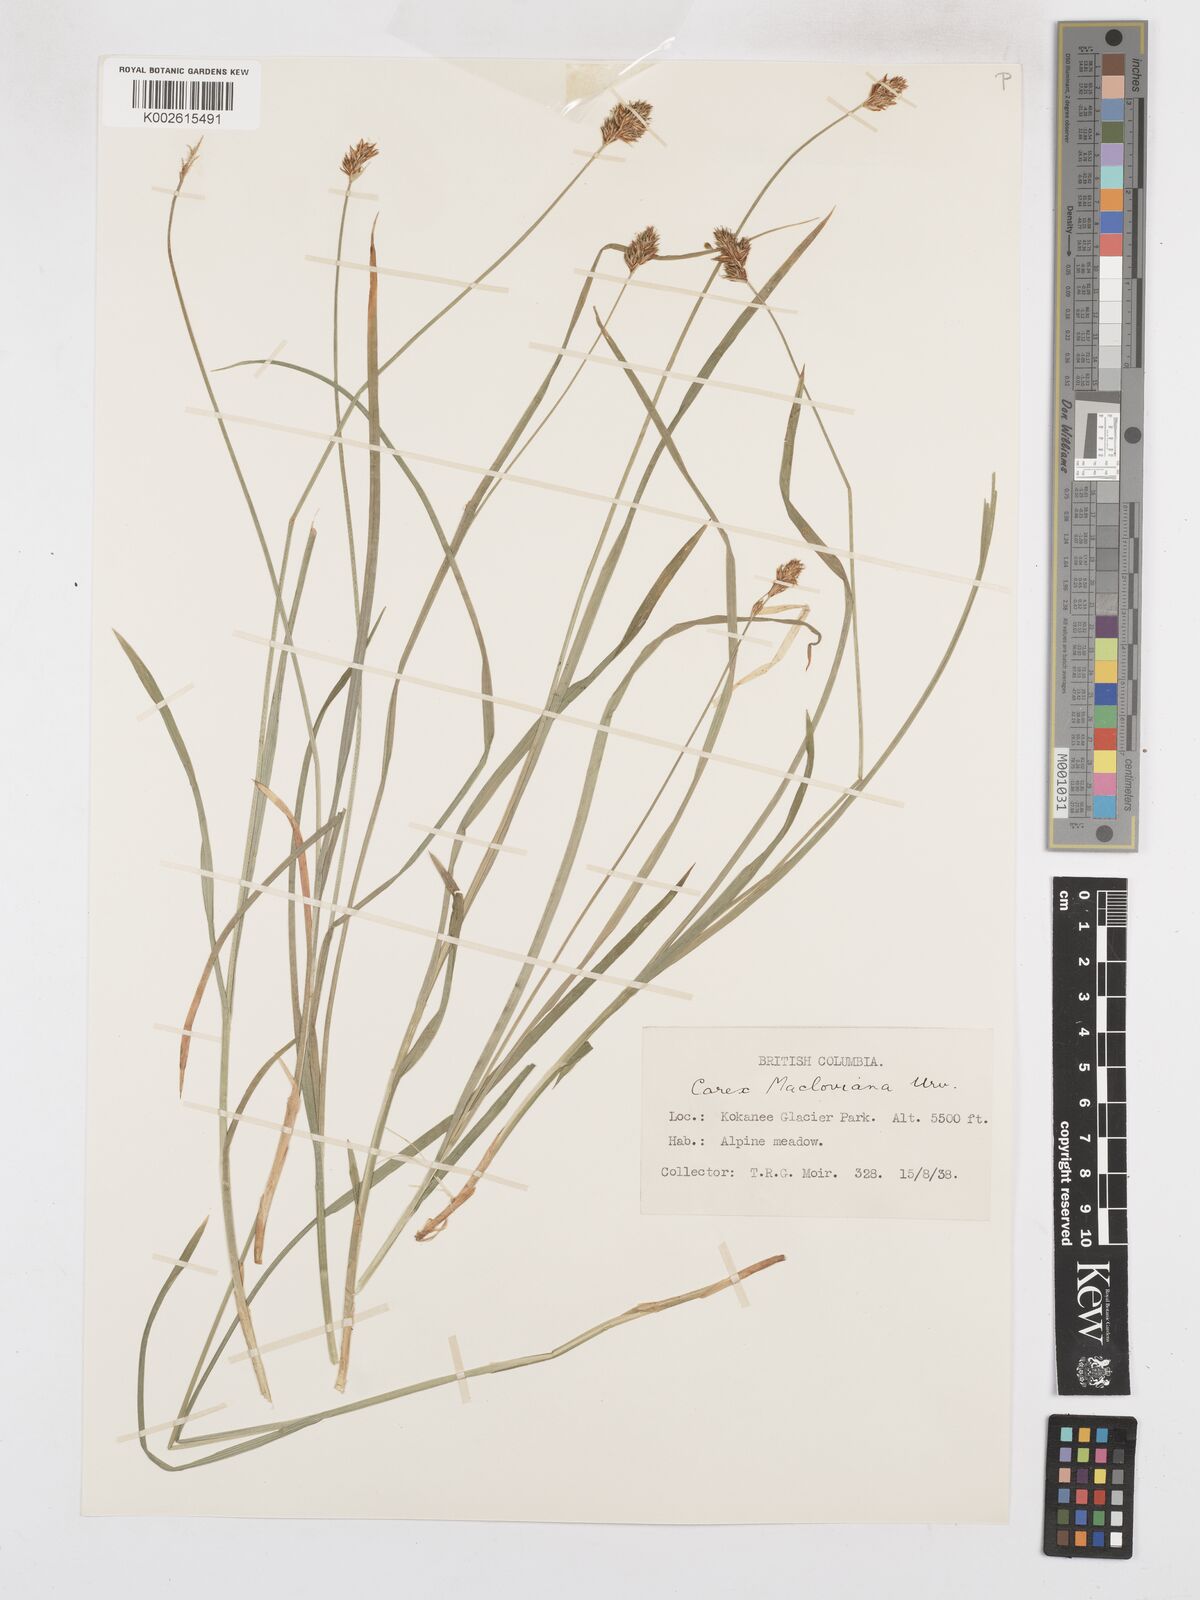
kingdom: Plantae
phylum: Tracheophyta
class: Liliopsida
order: Poales
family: Cyperaceae
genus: Carex
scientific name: Carex macloviana
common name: Falkland island sedge
